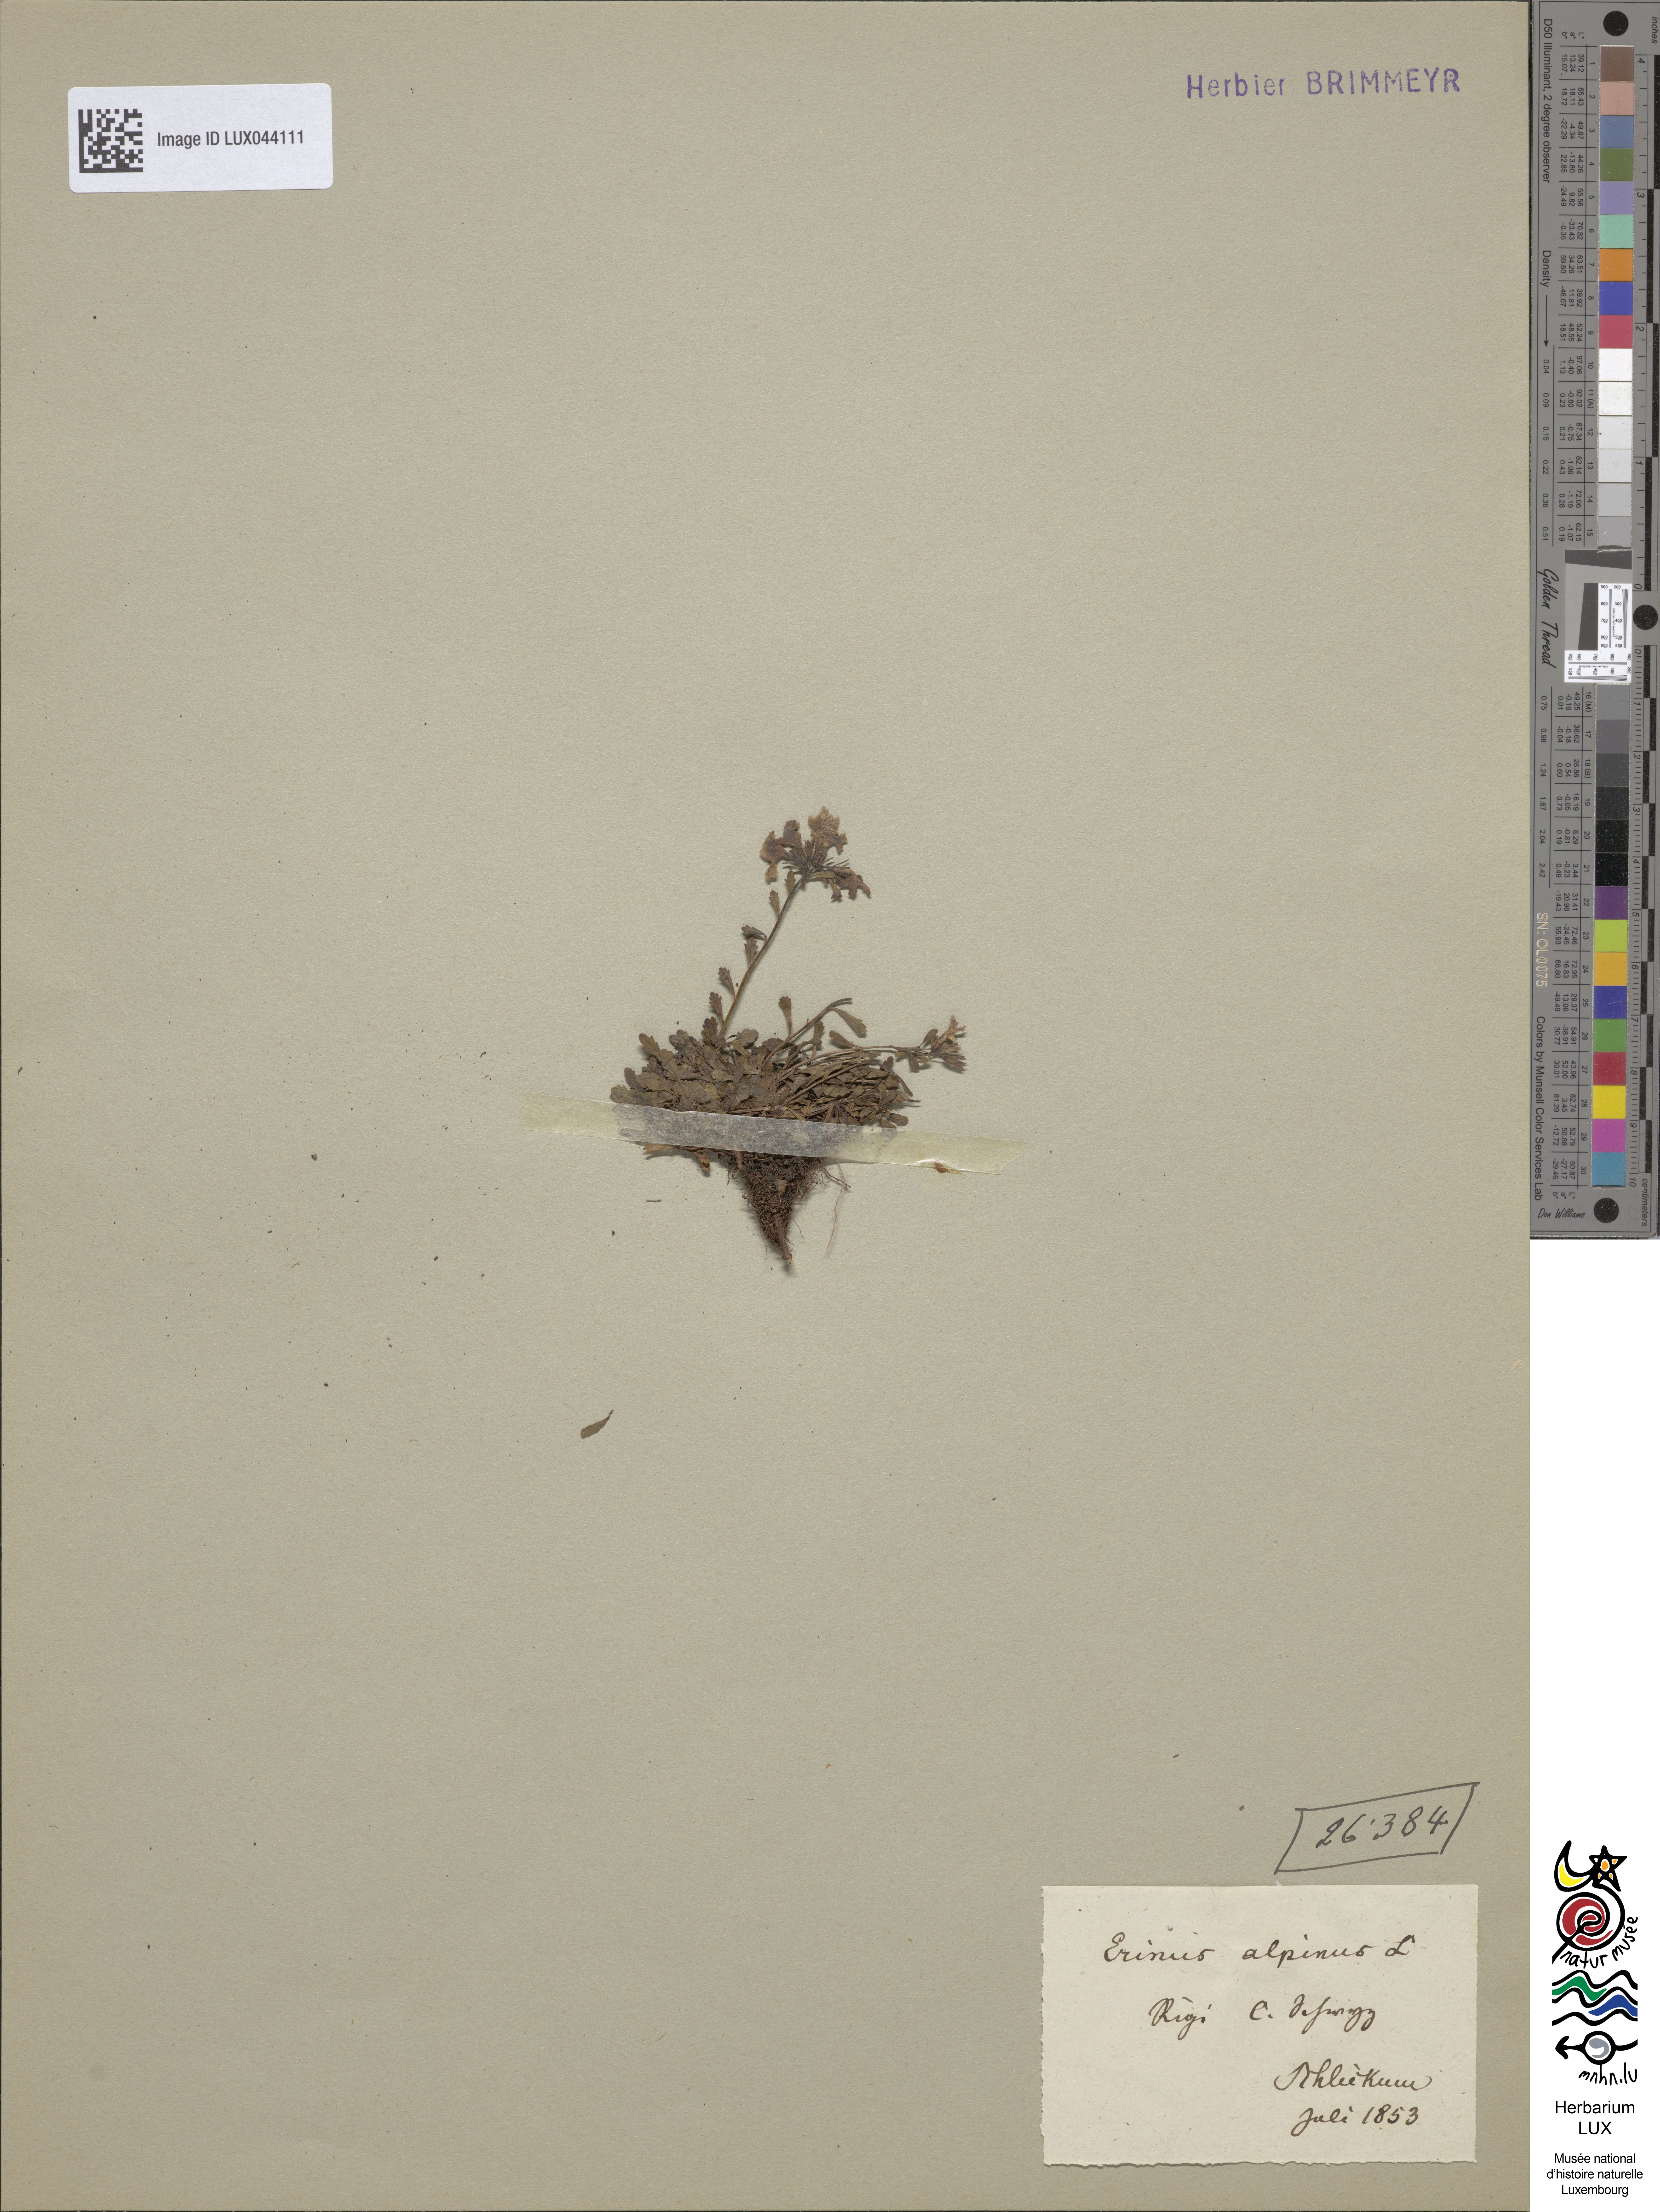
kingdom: Plantae
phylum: Tracheophyta
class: Magnoliopsida
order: Lamiales
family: Plantaginaceae
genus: Erinus
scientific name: Erinus alpinus
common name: Fairy foxglove
